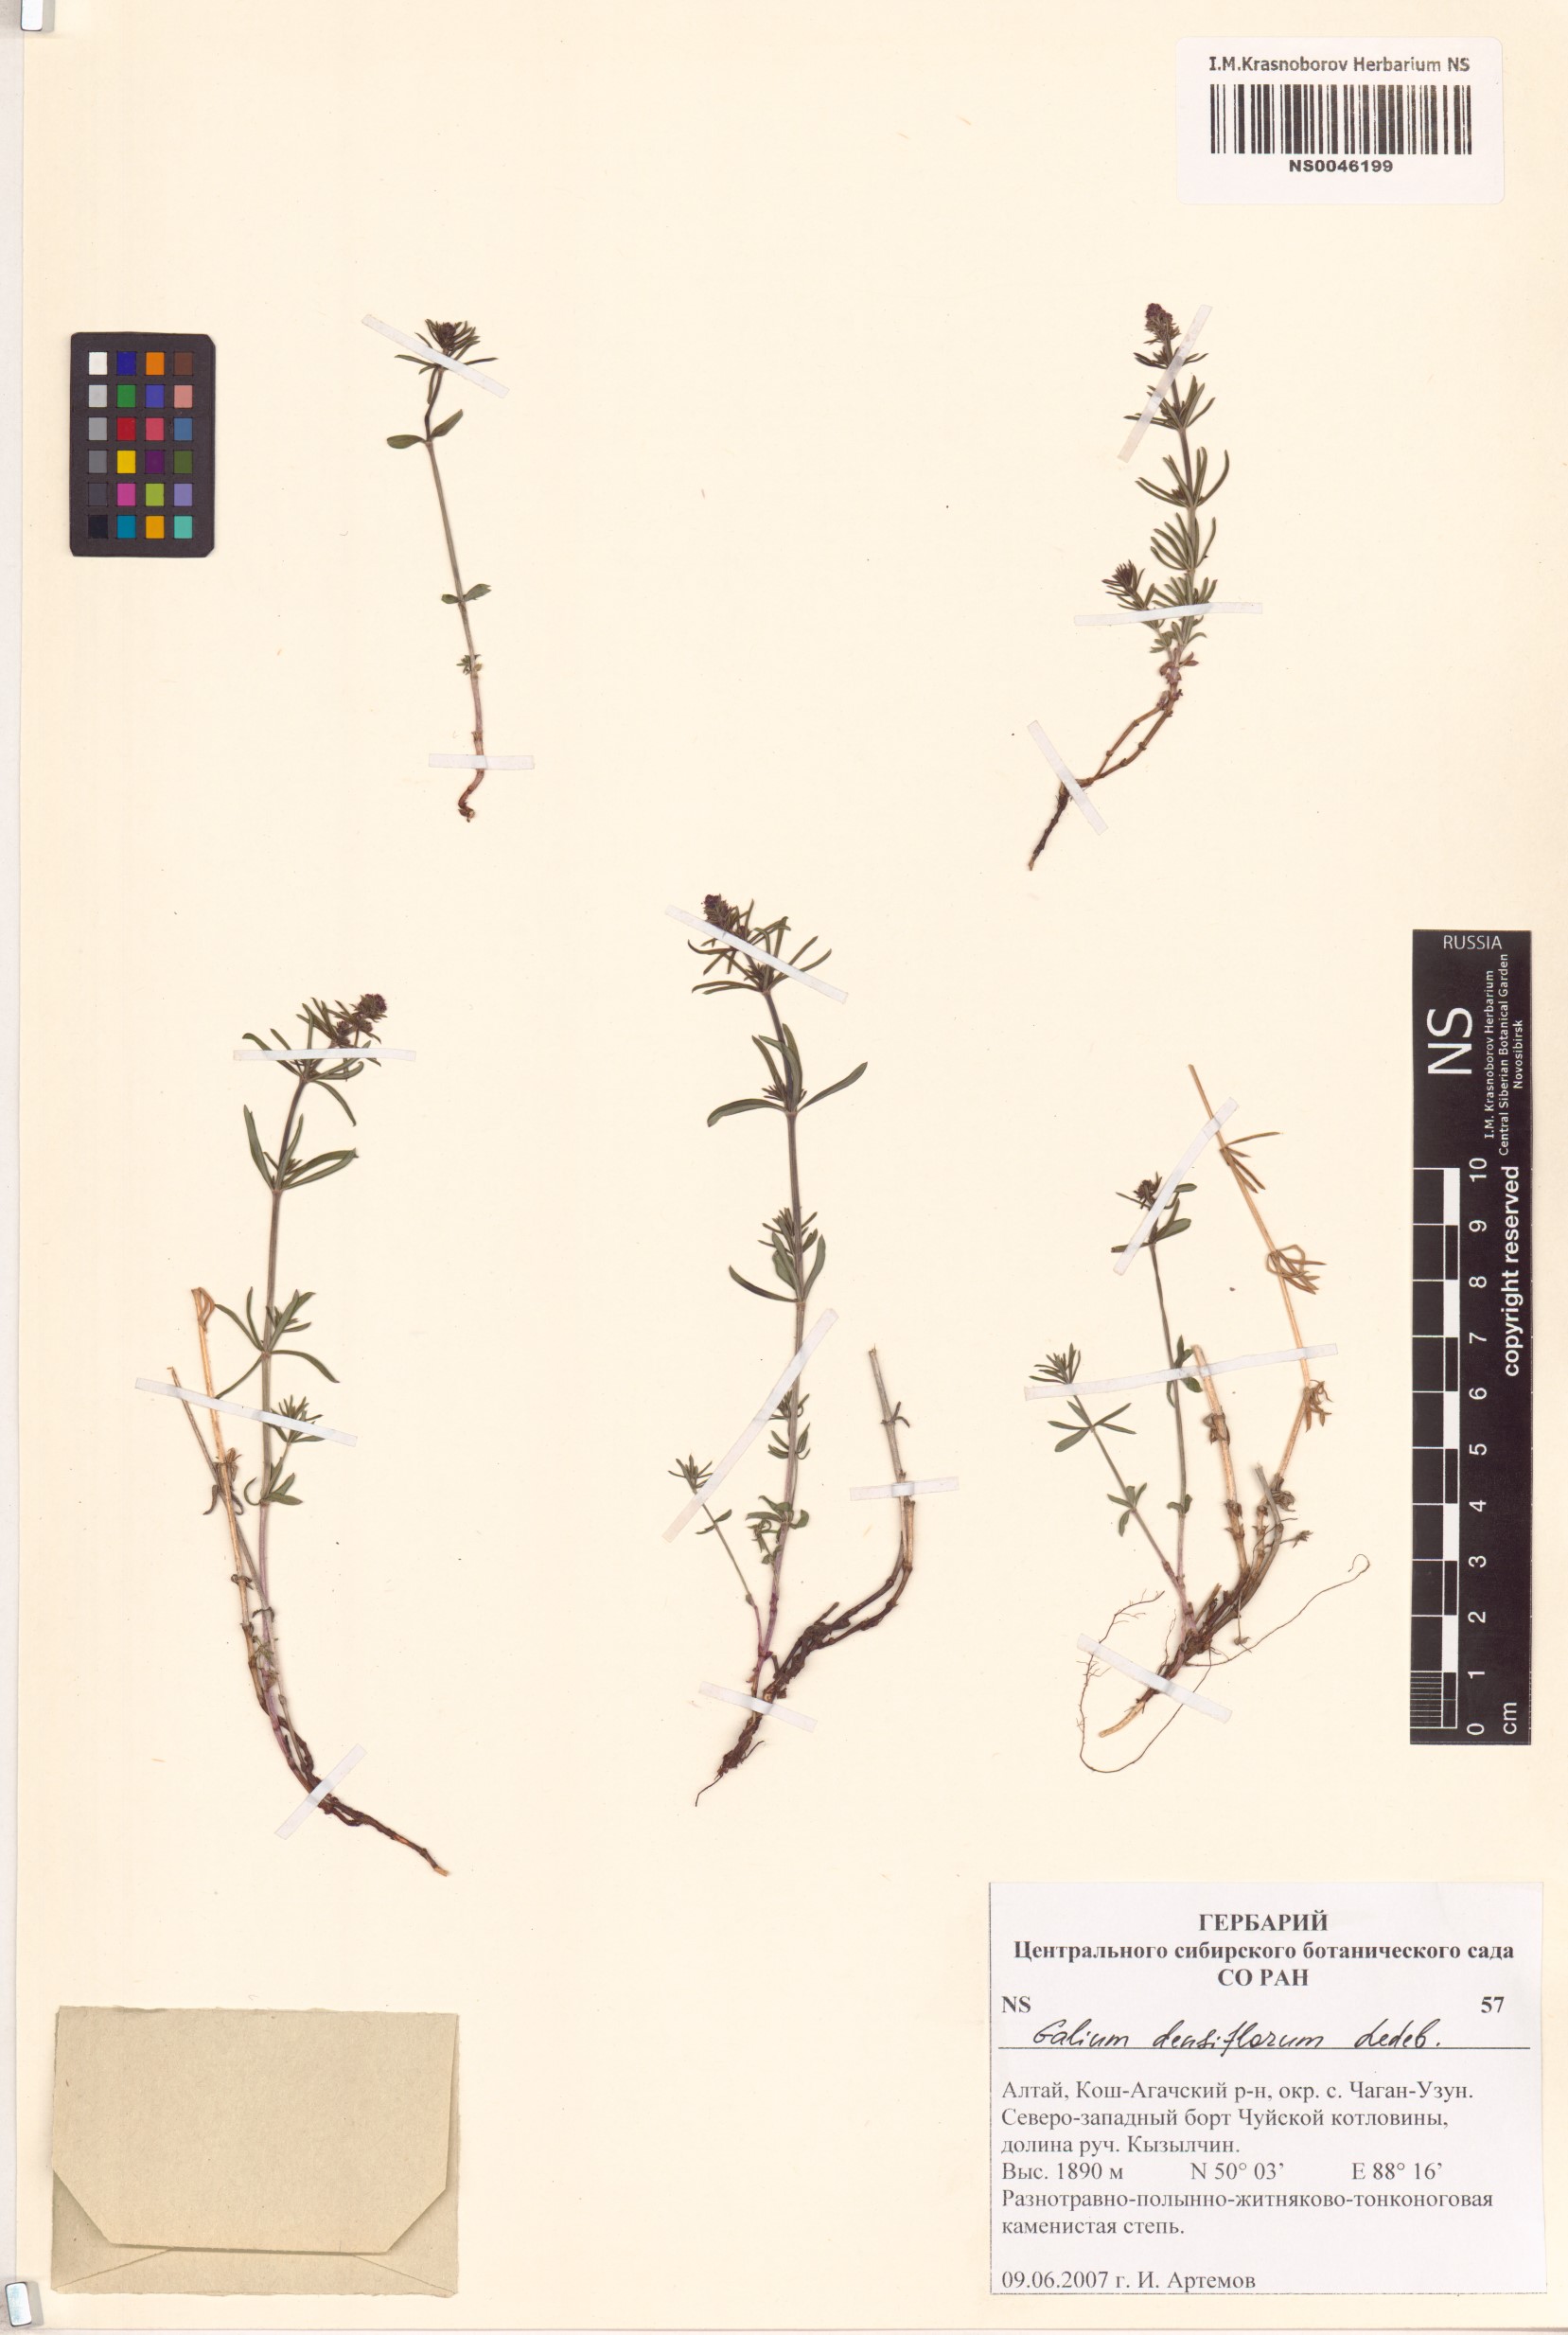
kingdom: Plantae
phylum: Tracheophyta
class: Magnoliopsida
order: Gentianales
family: Rubiaceae
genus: Galium
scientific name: Galium densiflorum
